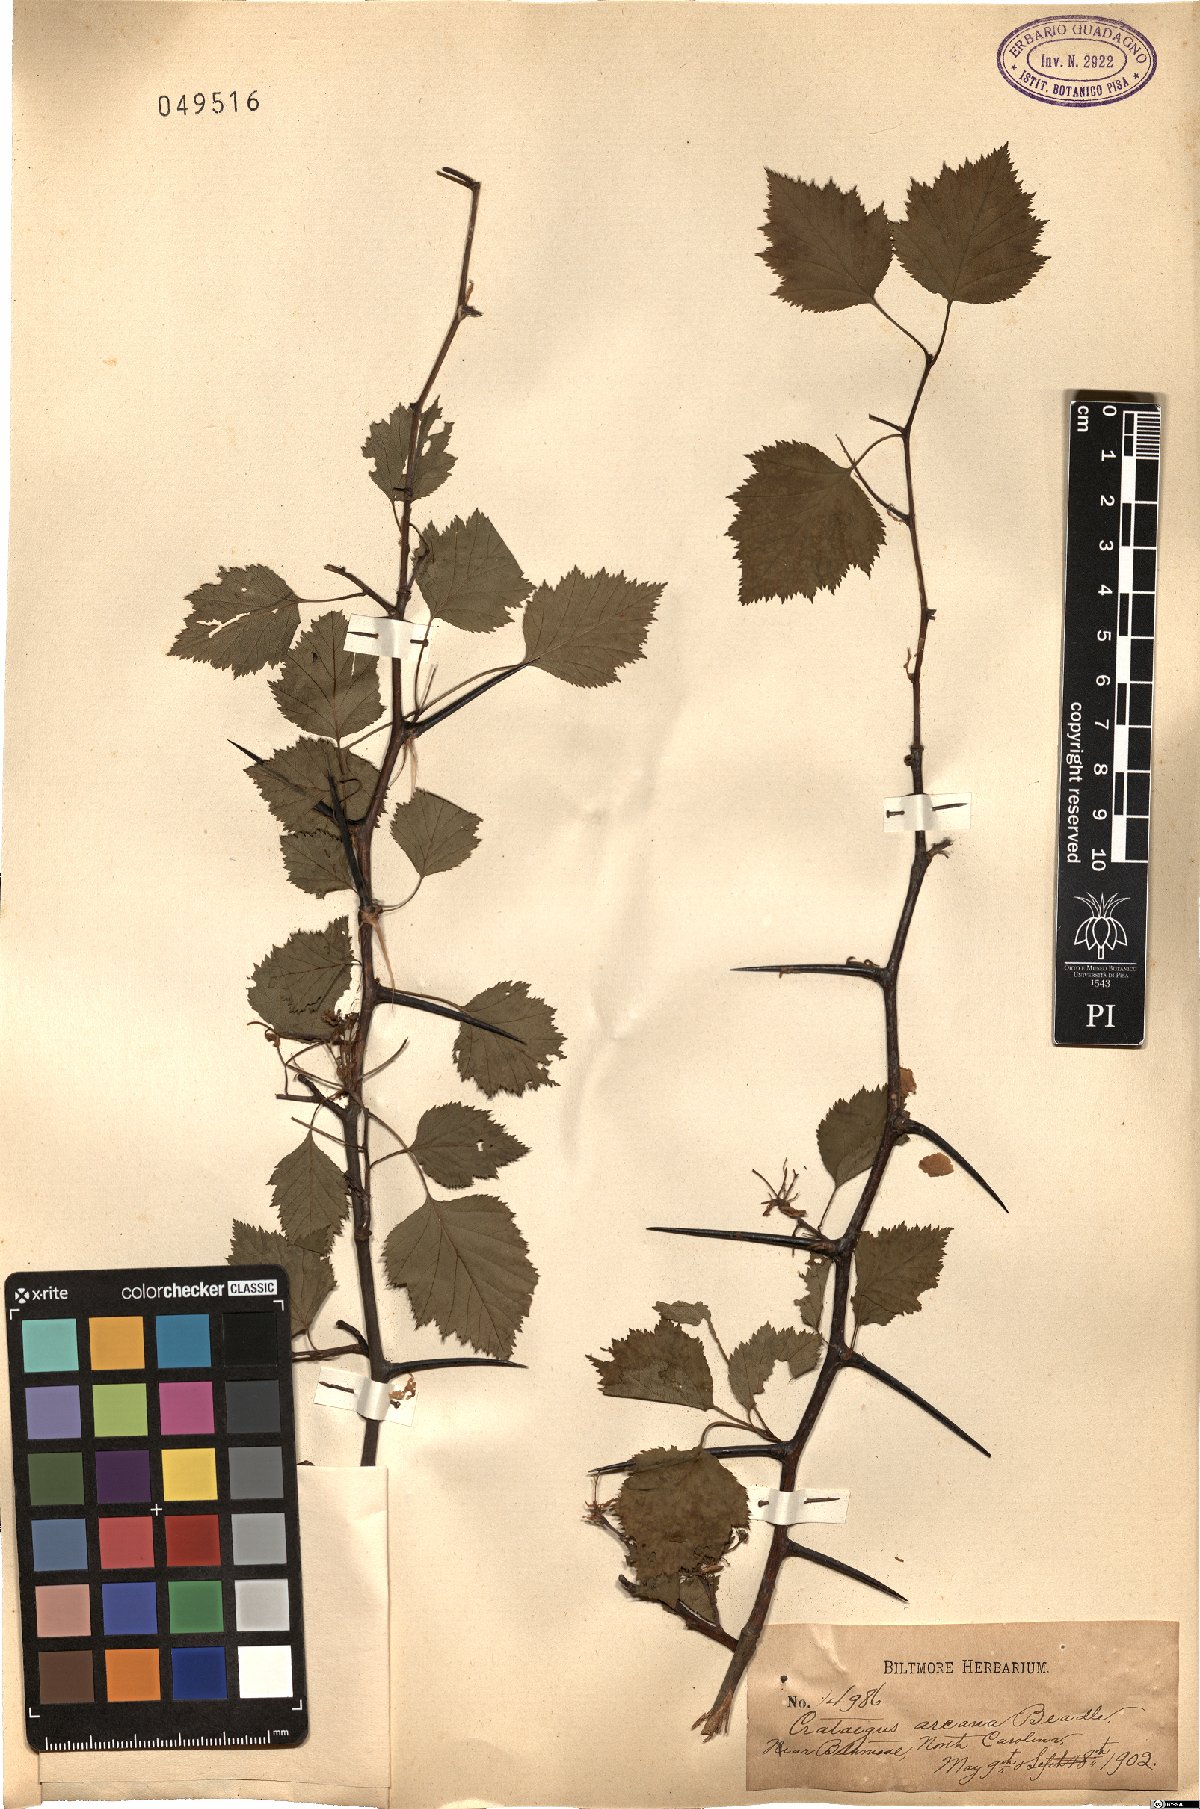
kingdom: Plantae
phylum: Tracheophyta
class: Magnoliopsida
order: Rosales
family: Rosaceae
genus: Crataegus
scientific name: Crataegus pruinosa
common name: Waxy-fruit hawthorn
